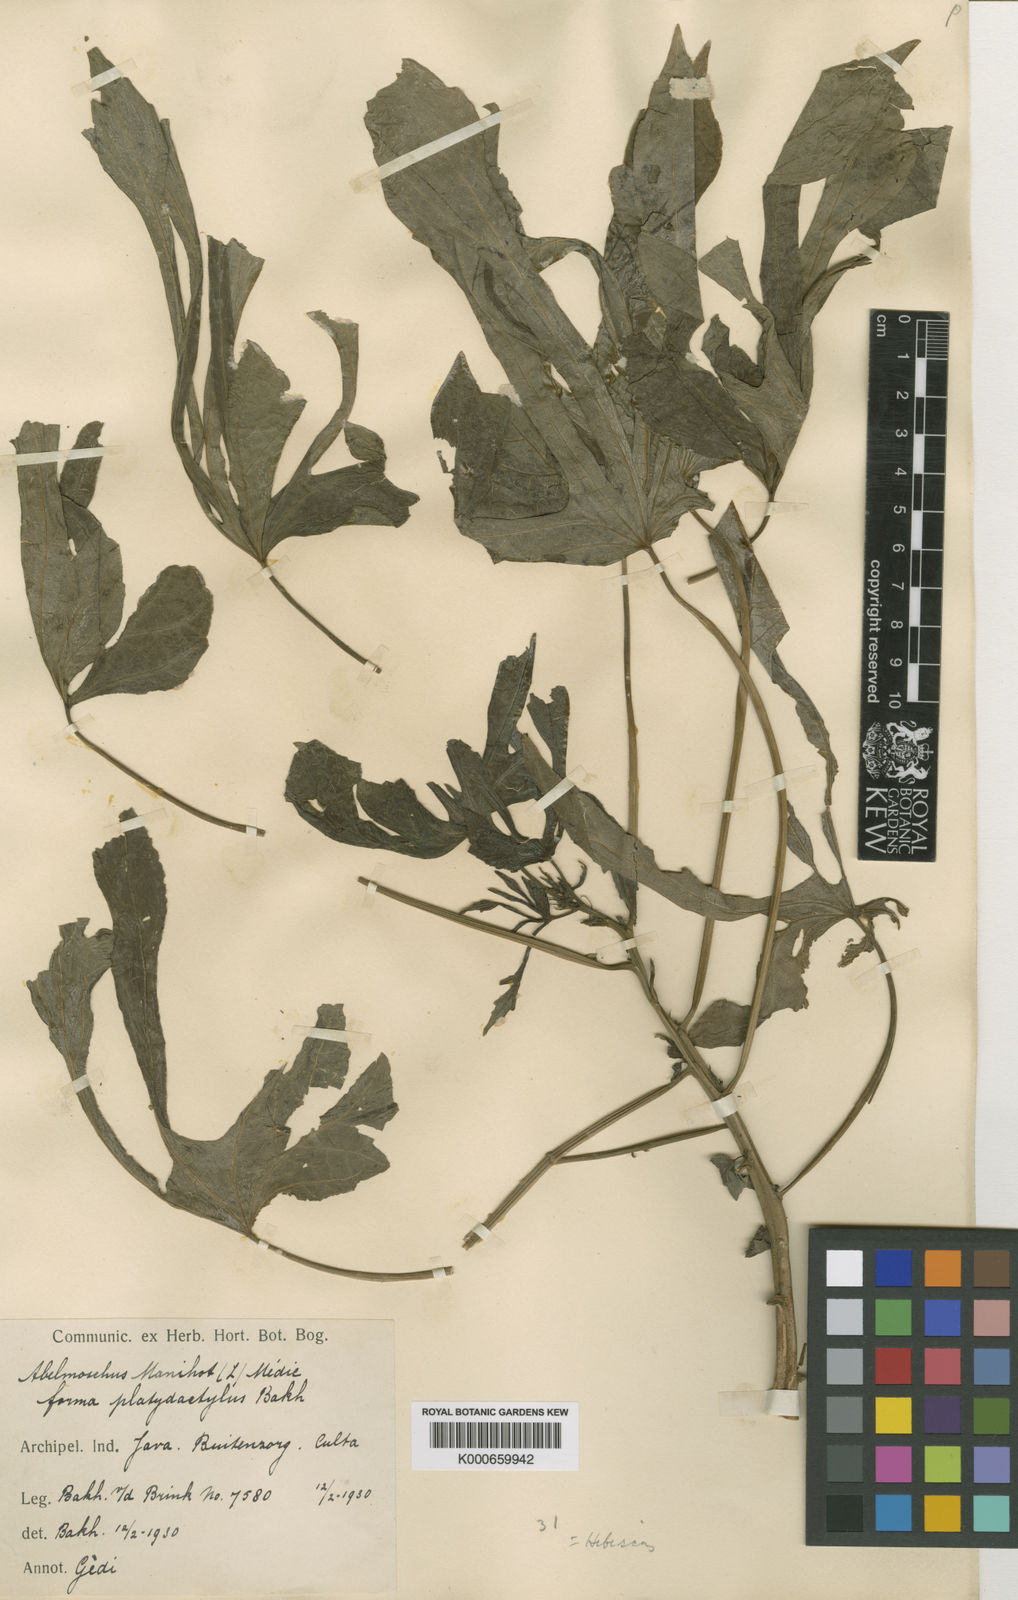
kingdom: Plantae
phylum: Tracheophyta
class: Magnoliopsida
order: Malvales
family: Malvaceae
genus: Abelmoschus
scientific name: Abelmoschus manihot
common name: Sunset muskmallow
